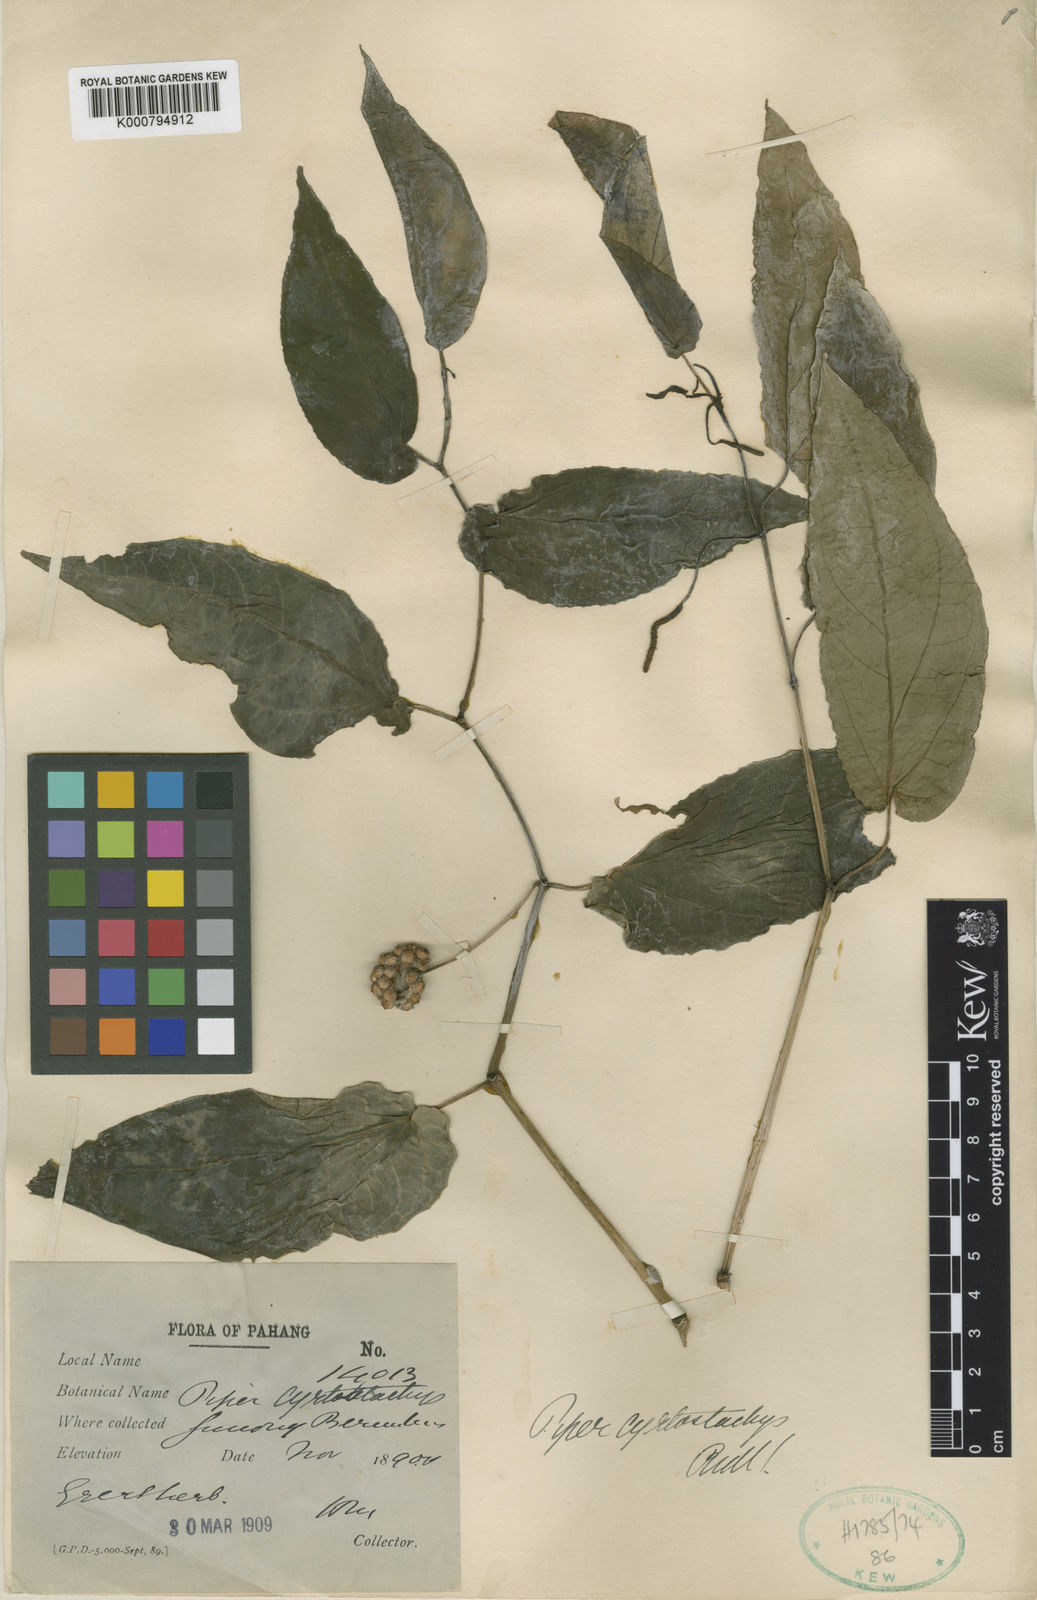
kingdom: Plantae
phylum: Tracheophyta
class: Magnoliopsida
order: Piperales
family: Piperaceae
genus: Piper
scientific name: Piper cyrtostachys
